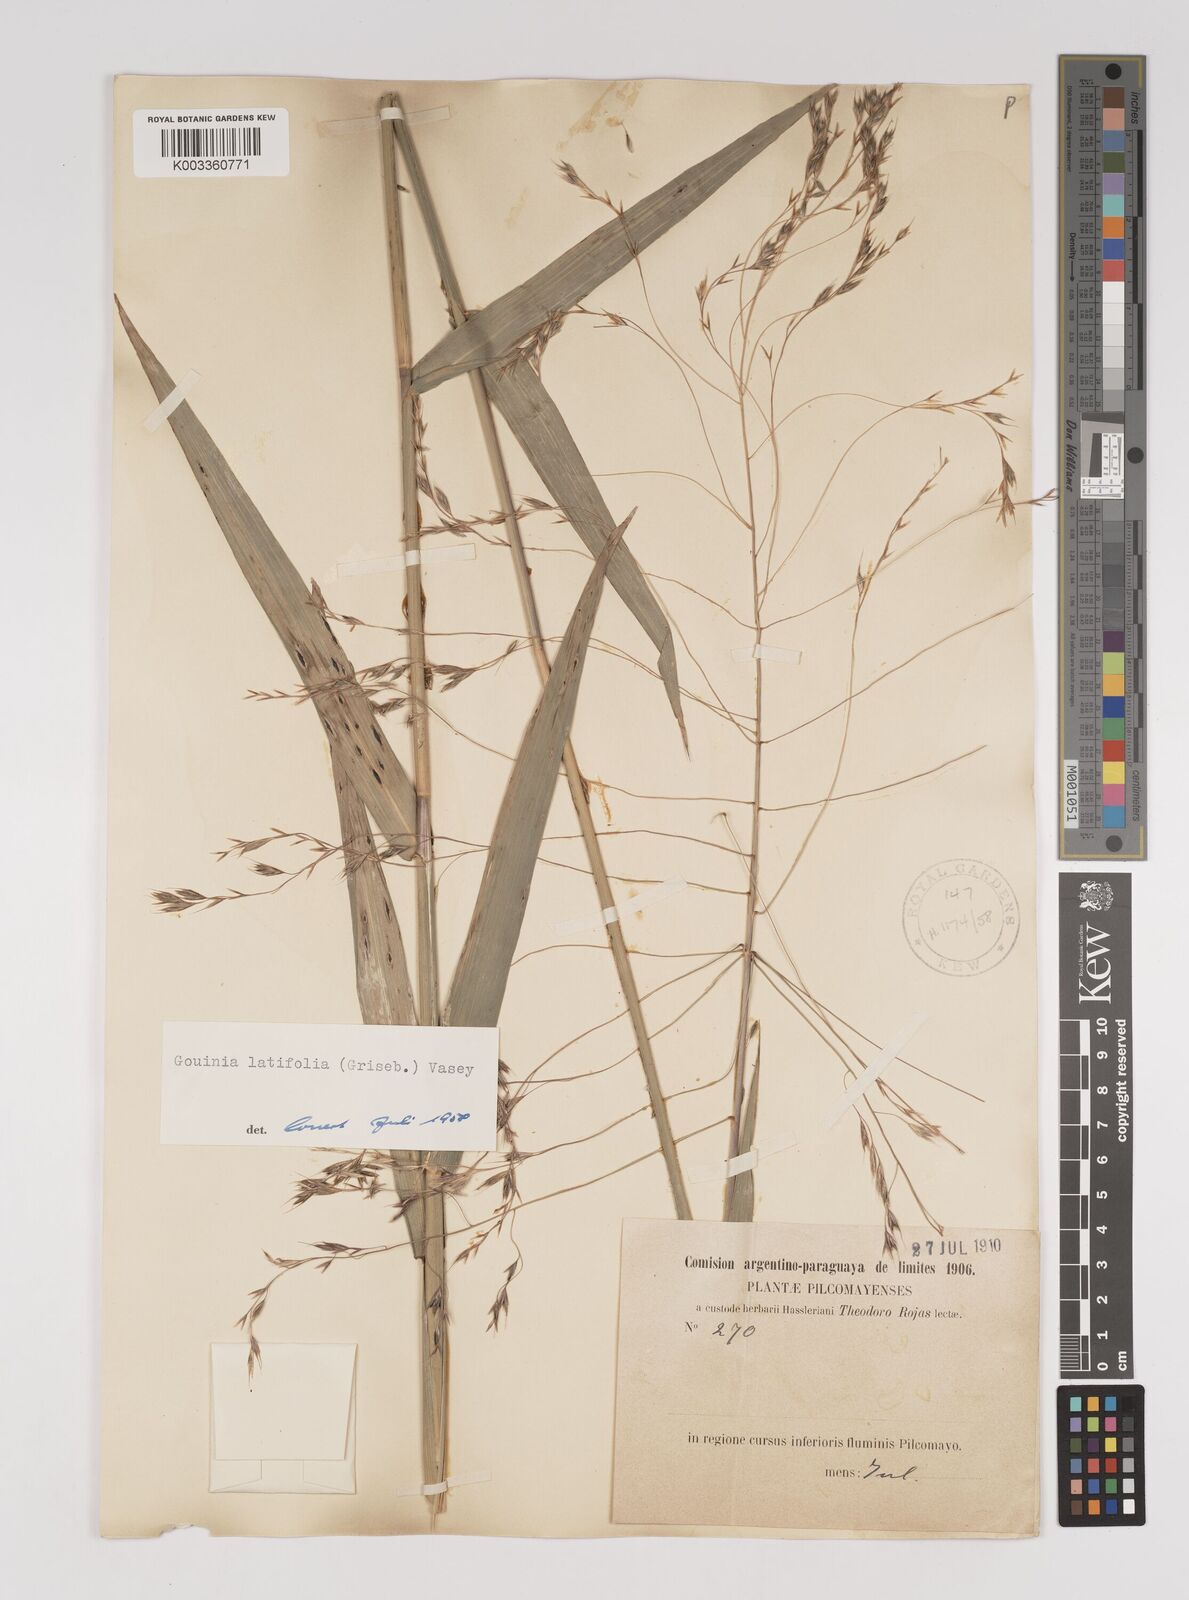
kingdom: Plantae
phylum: Tracheophyta
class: Liliopsida
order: Poales
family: Poaceae
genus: Gouinia
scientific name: Gouinia latifolia
